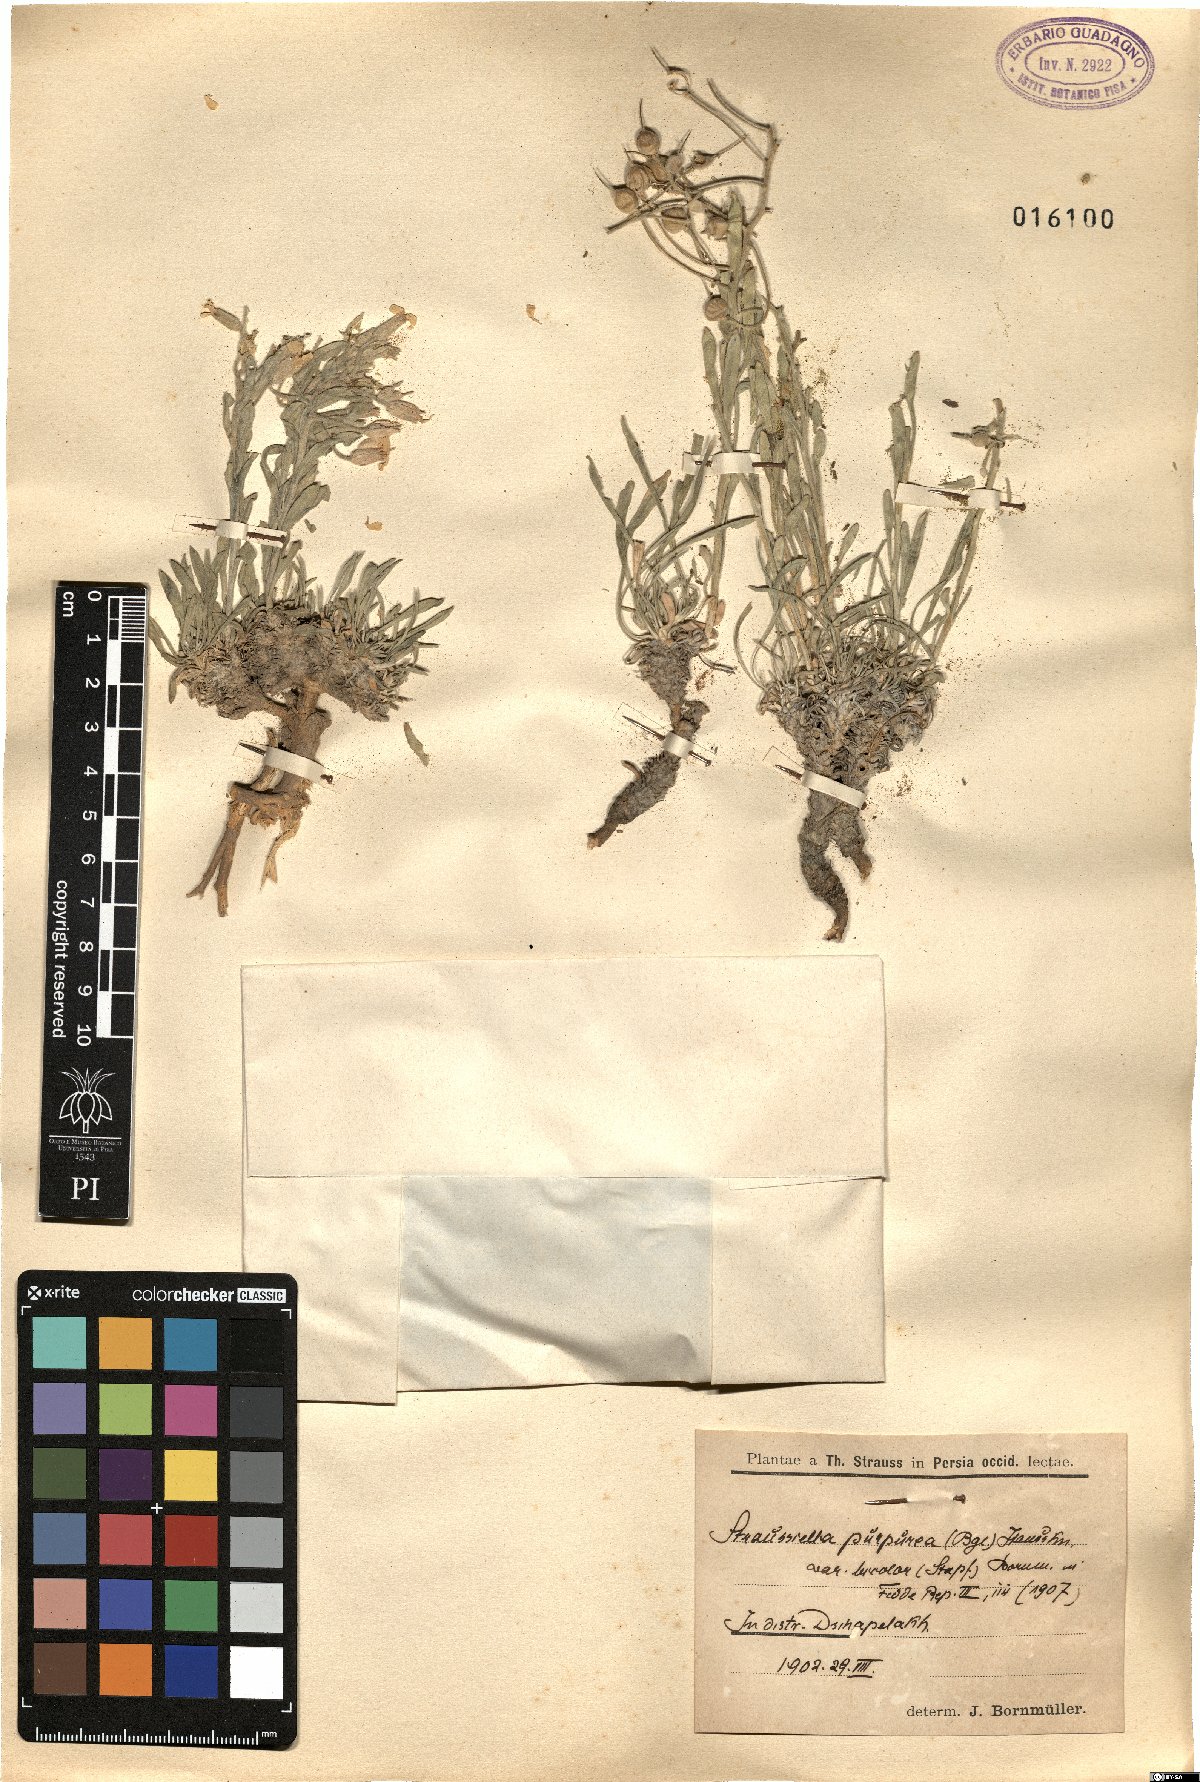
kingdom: Plantae
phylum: Tracheophyta
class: Magnoliopsida
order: Brassicales
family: Brassicaceae
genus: Clastopus
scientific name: Clastopus purpureus
